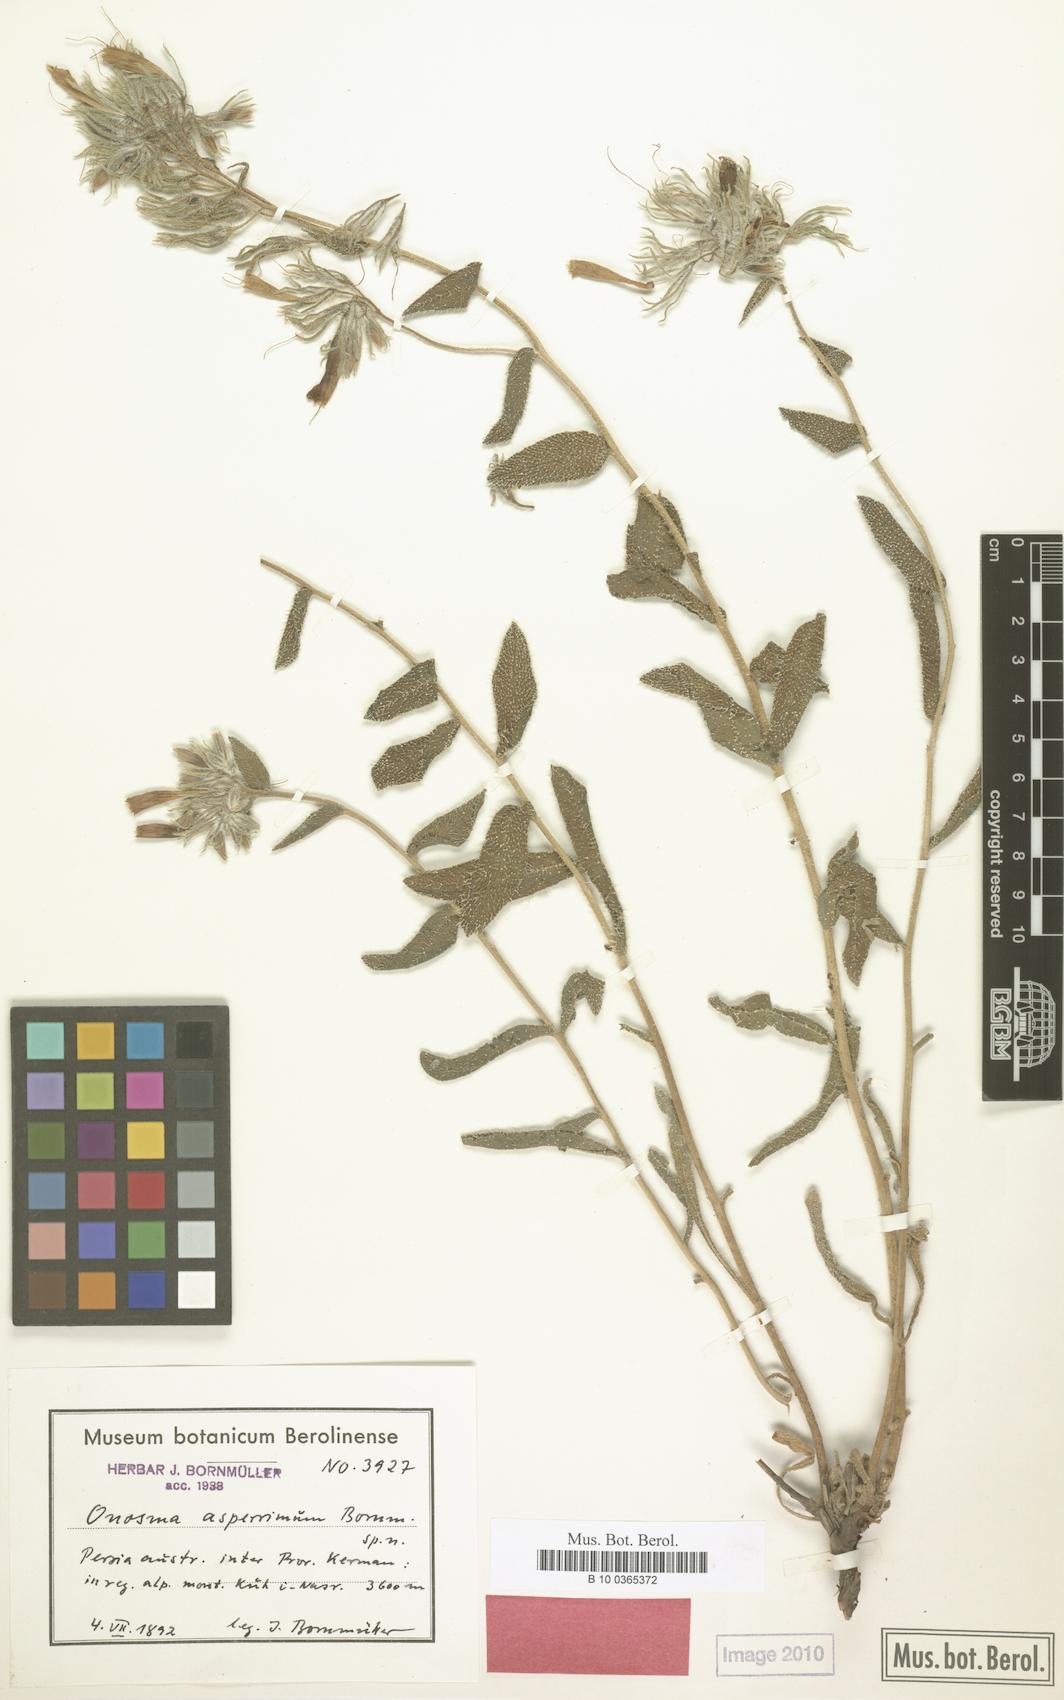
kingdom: Plantae
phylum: Tracheophyta
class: Magnoliopsida
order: Boraginales
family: Boraginaceae
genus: Onosma
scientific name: Onosma asperrima
